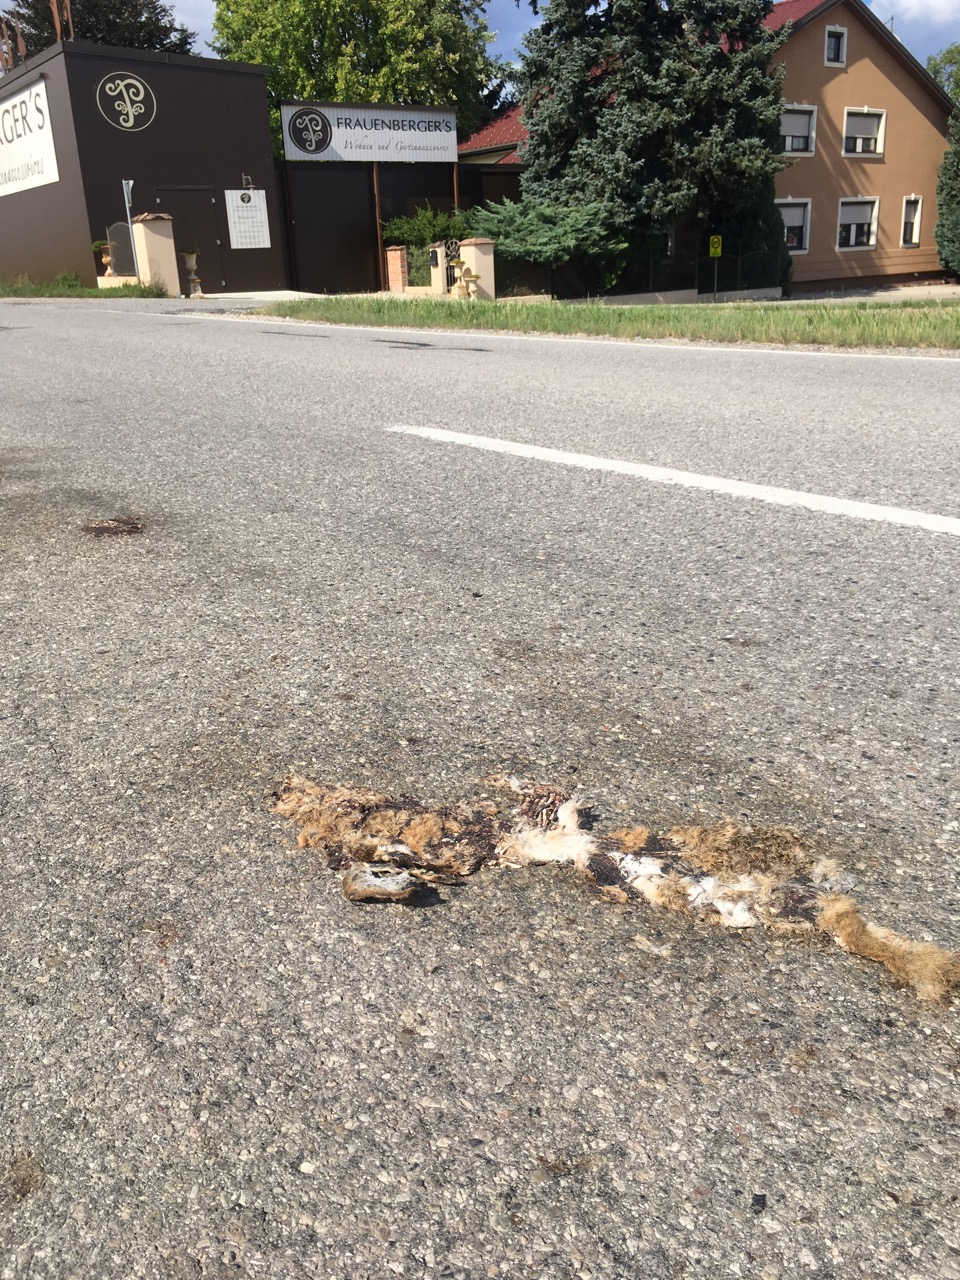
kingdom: Animalia
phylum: Chordata
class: Mammalia
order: Lagomorpha
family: Leporidae
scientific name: Leporidae
